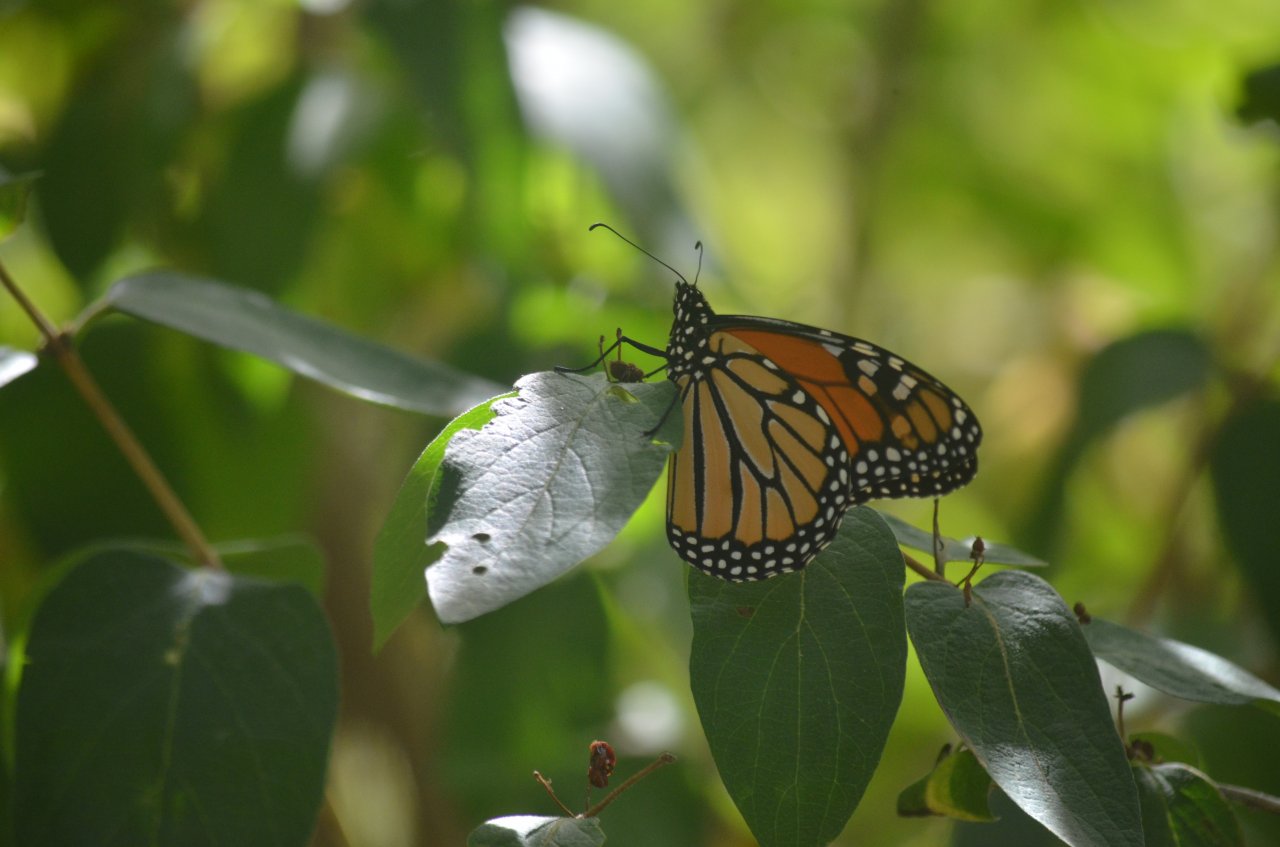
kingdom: Animalia
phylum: Arthropoda
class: Insecta
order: Lepidoptera
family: Nymphalidae
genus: Danaus
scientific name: Danaus plexippus
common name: Monarch
